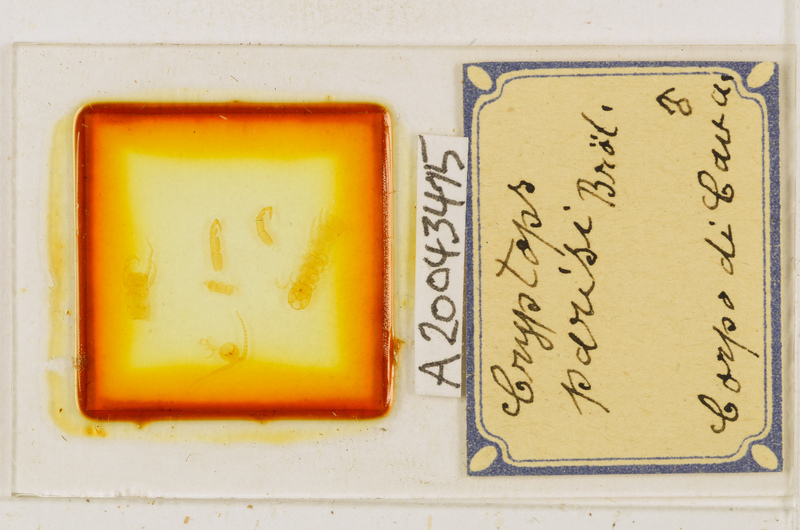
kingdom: Animalia
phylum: Arthropoda
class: Chilopoda
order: Scolopendromorpha
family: Cryptopidae
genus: Cryptops
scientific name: Cryptops parisi
